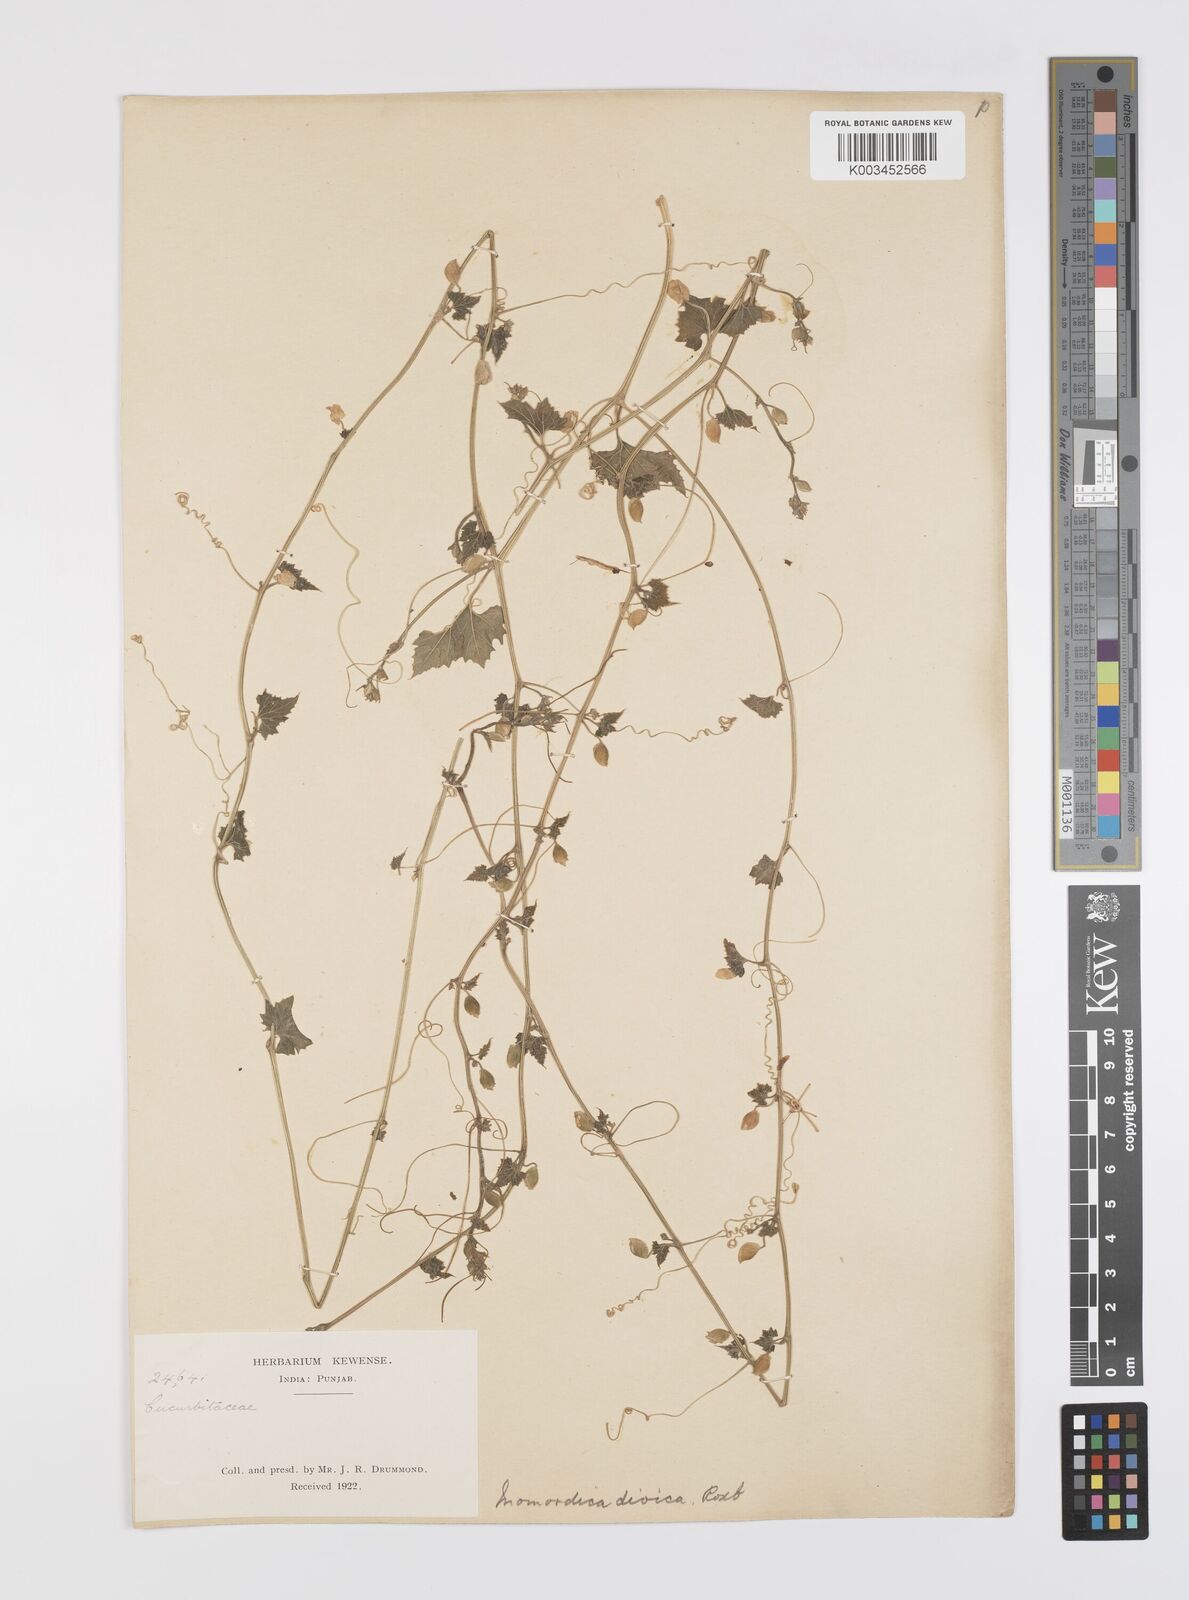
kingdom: Plantae
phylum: Tracheophyta
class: Magnoliopsida
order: Cucurbitales
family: Cucurbitaceae
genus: Momordica
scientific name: Momordica dioica
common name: Spine gourd
